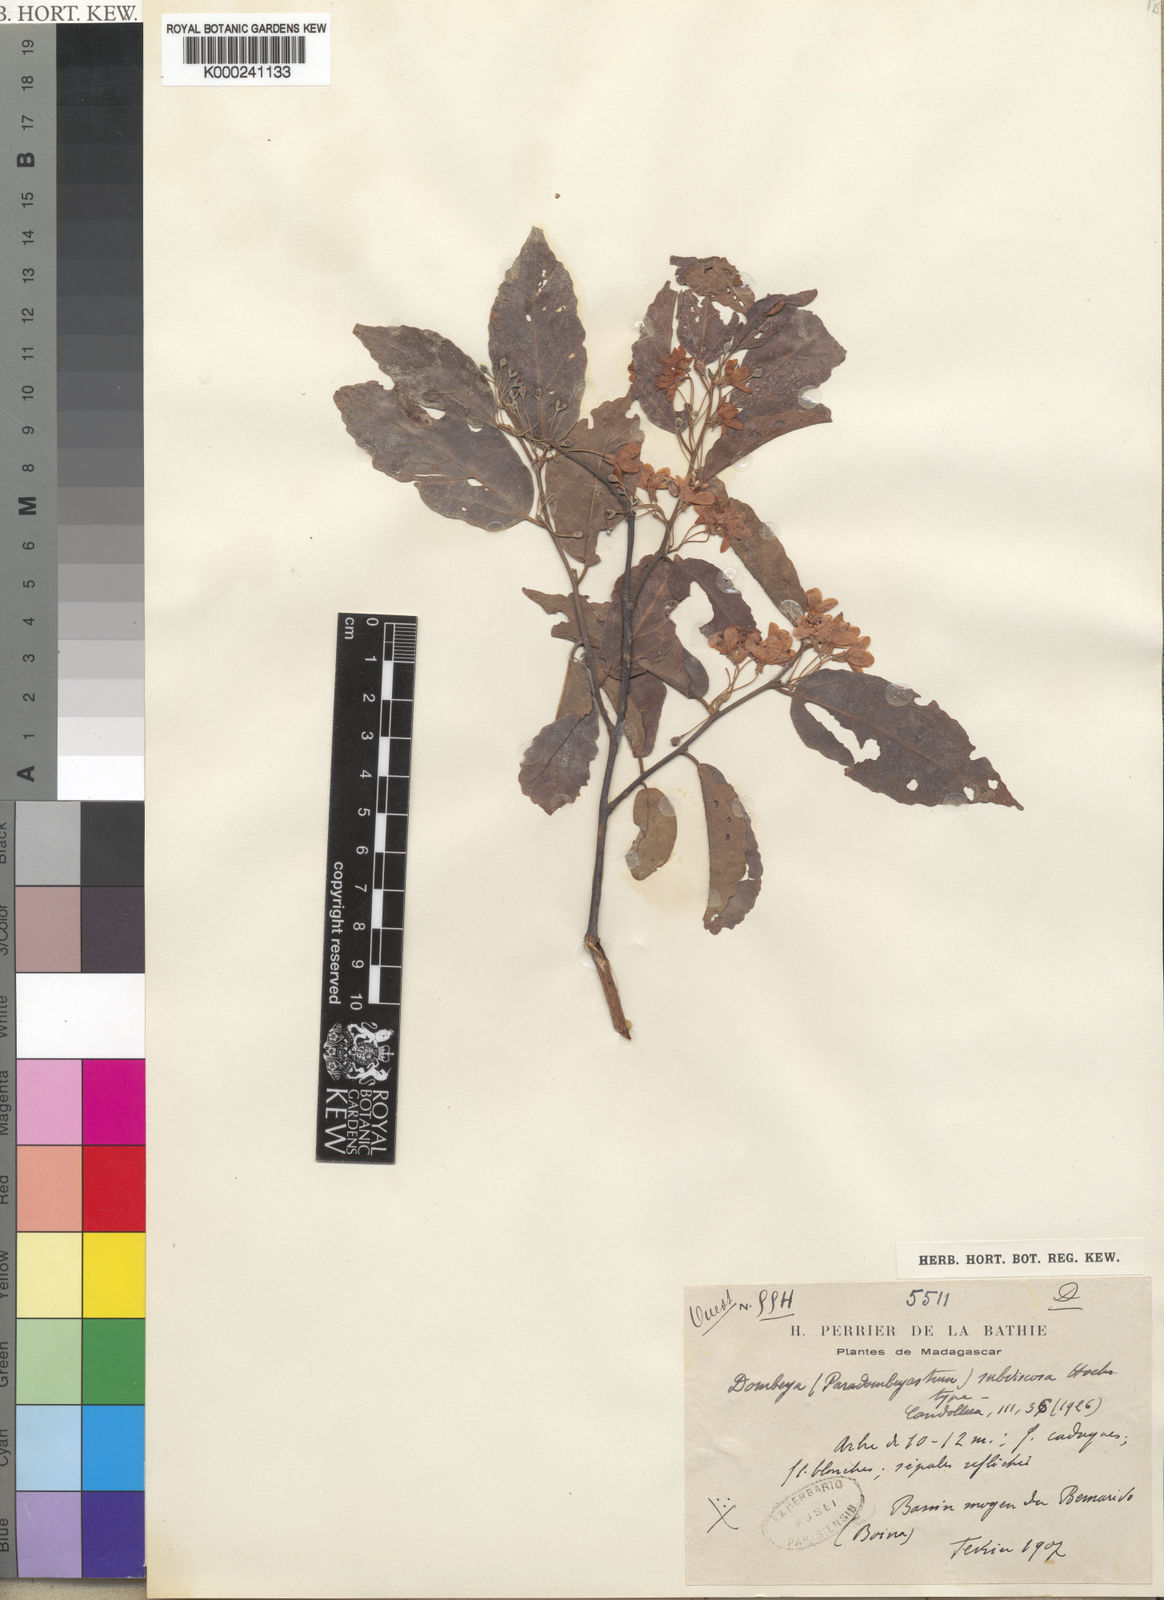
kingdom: Plantae
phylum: Tracheophyta
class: Magnoliopsida
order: Malvales
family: Malvaceae
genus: Dombeya
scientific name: Dombeya subviscosa
